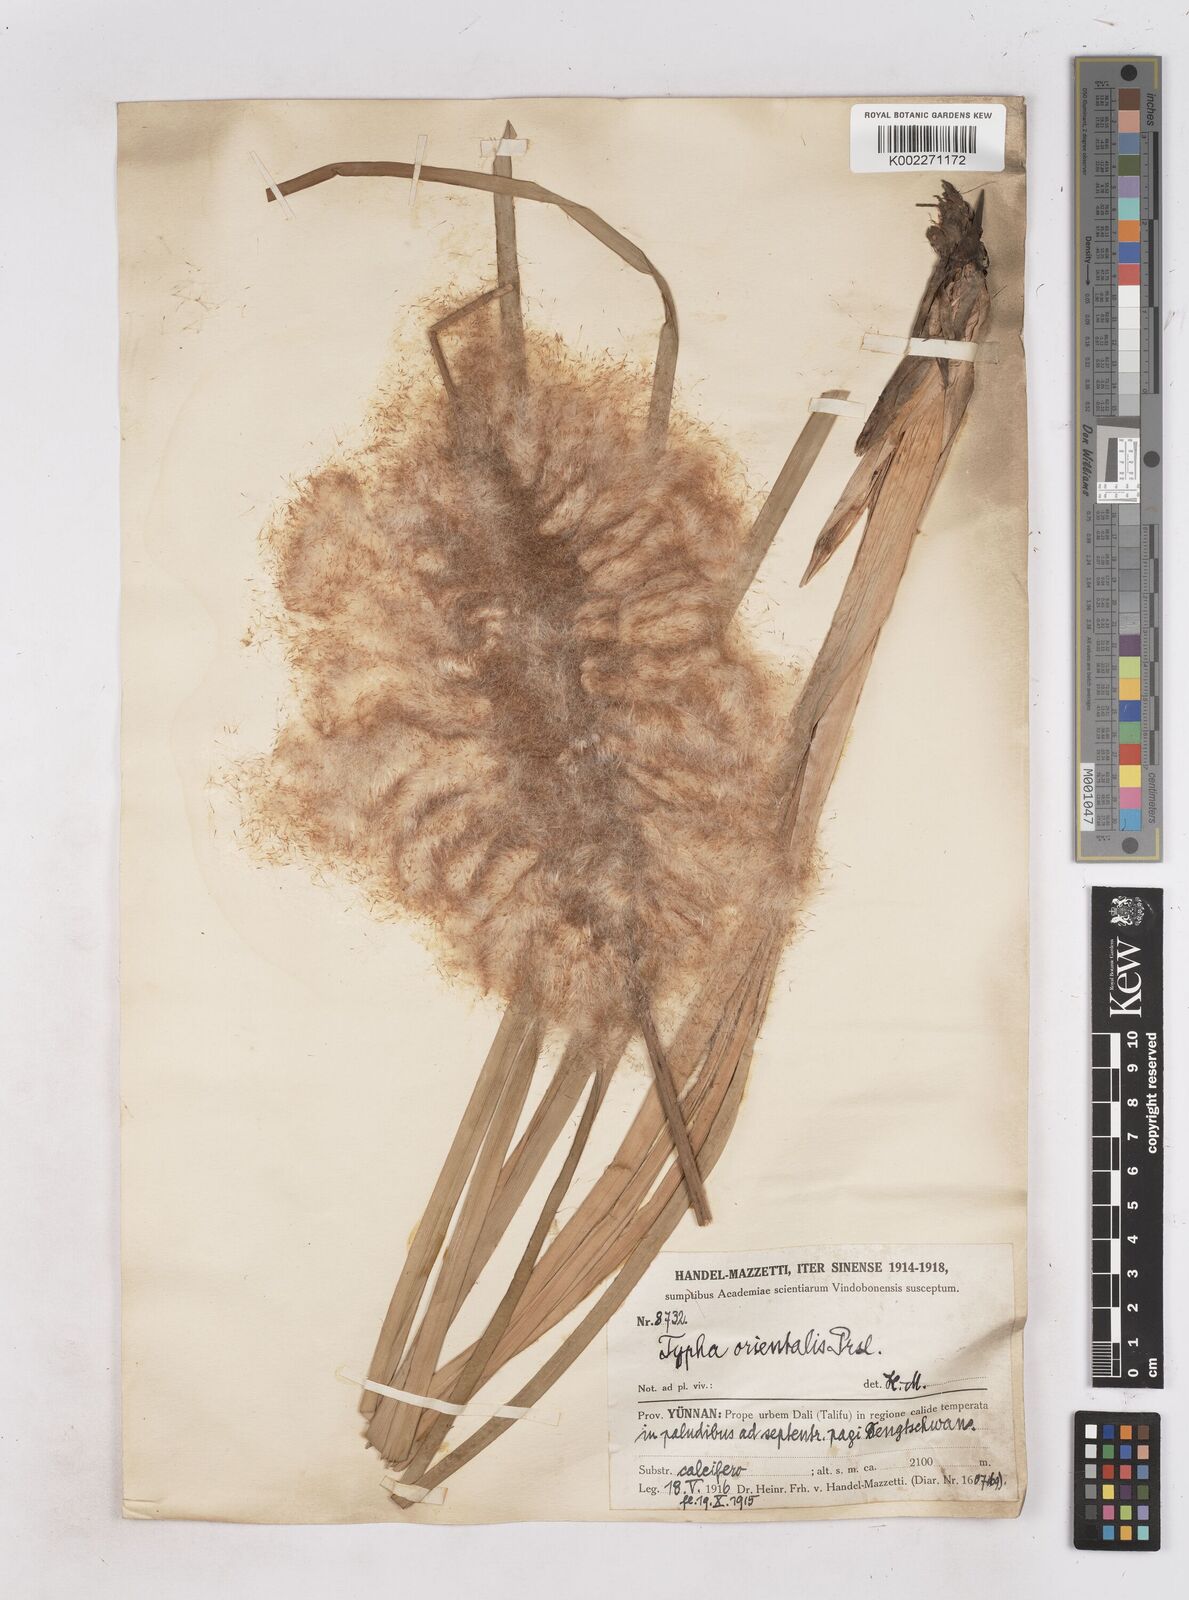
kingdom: Plantae
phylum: Tracheophyta
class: Liliopsida
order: Poales
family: Typhaceae
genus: Typha
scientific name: Typha shuttleworthii
